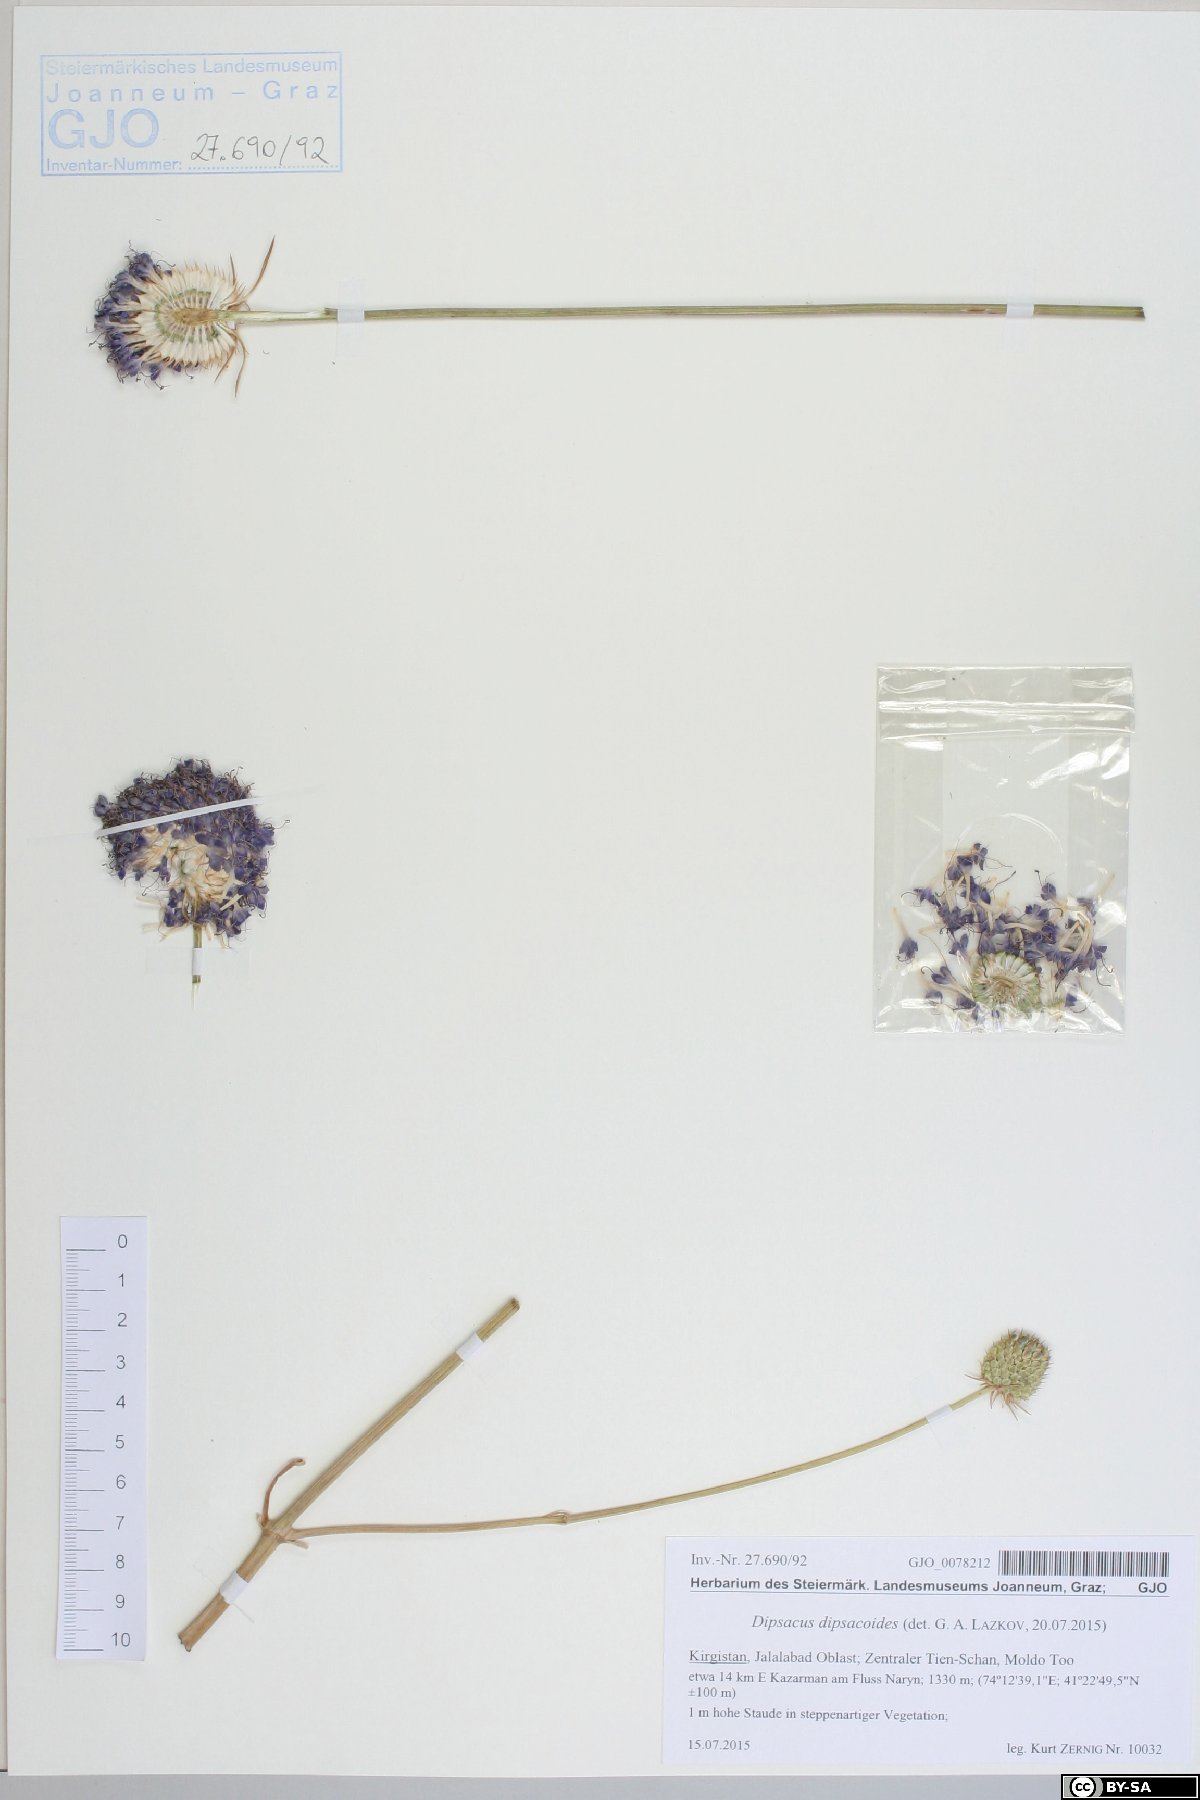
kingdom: Plantae
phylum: Tracheophyta
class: Magnoliopsida
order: Dipsacales
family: Caprifoliaceae
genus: Dipsacus
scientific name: Dipsacus azureus
